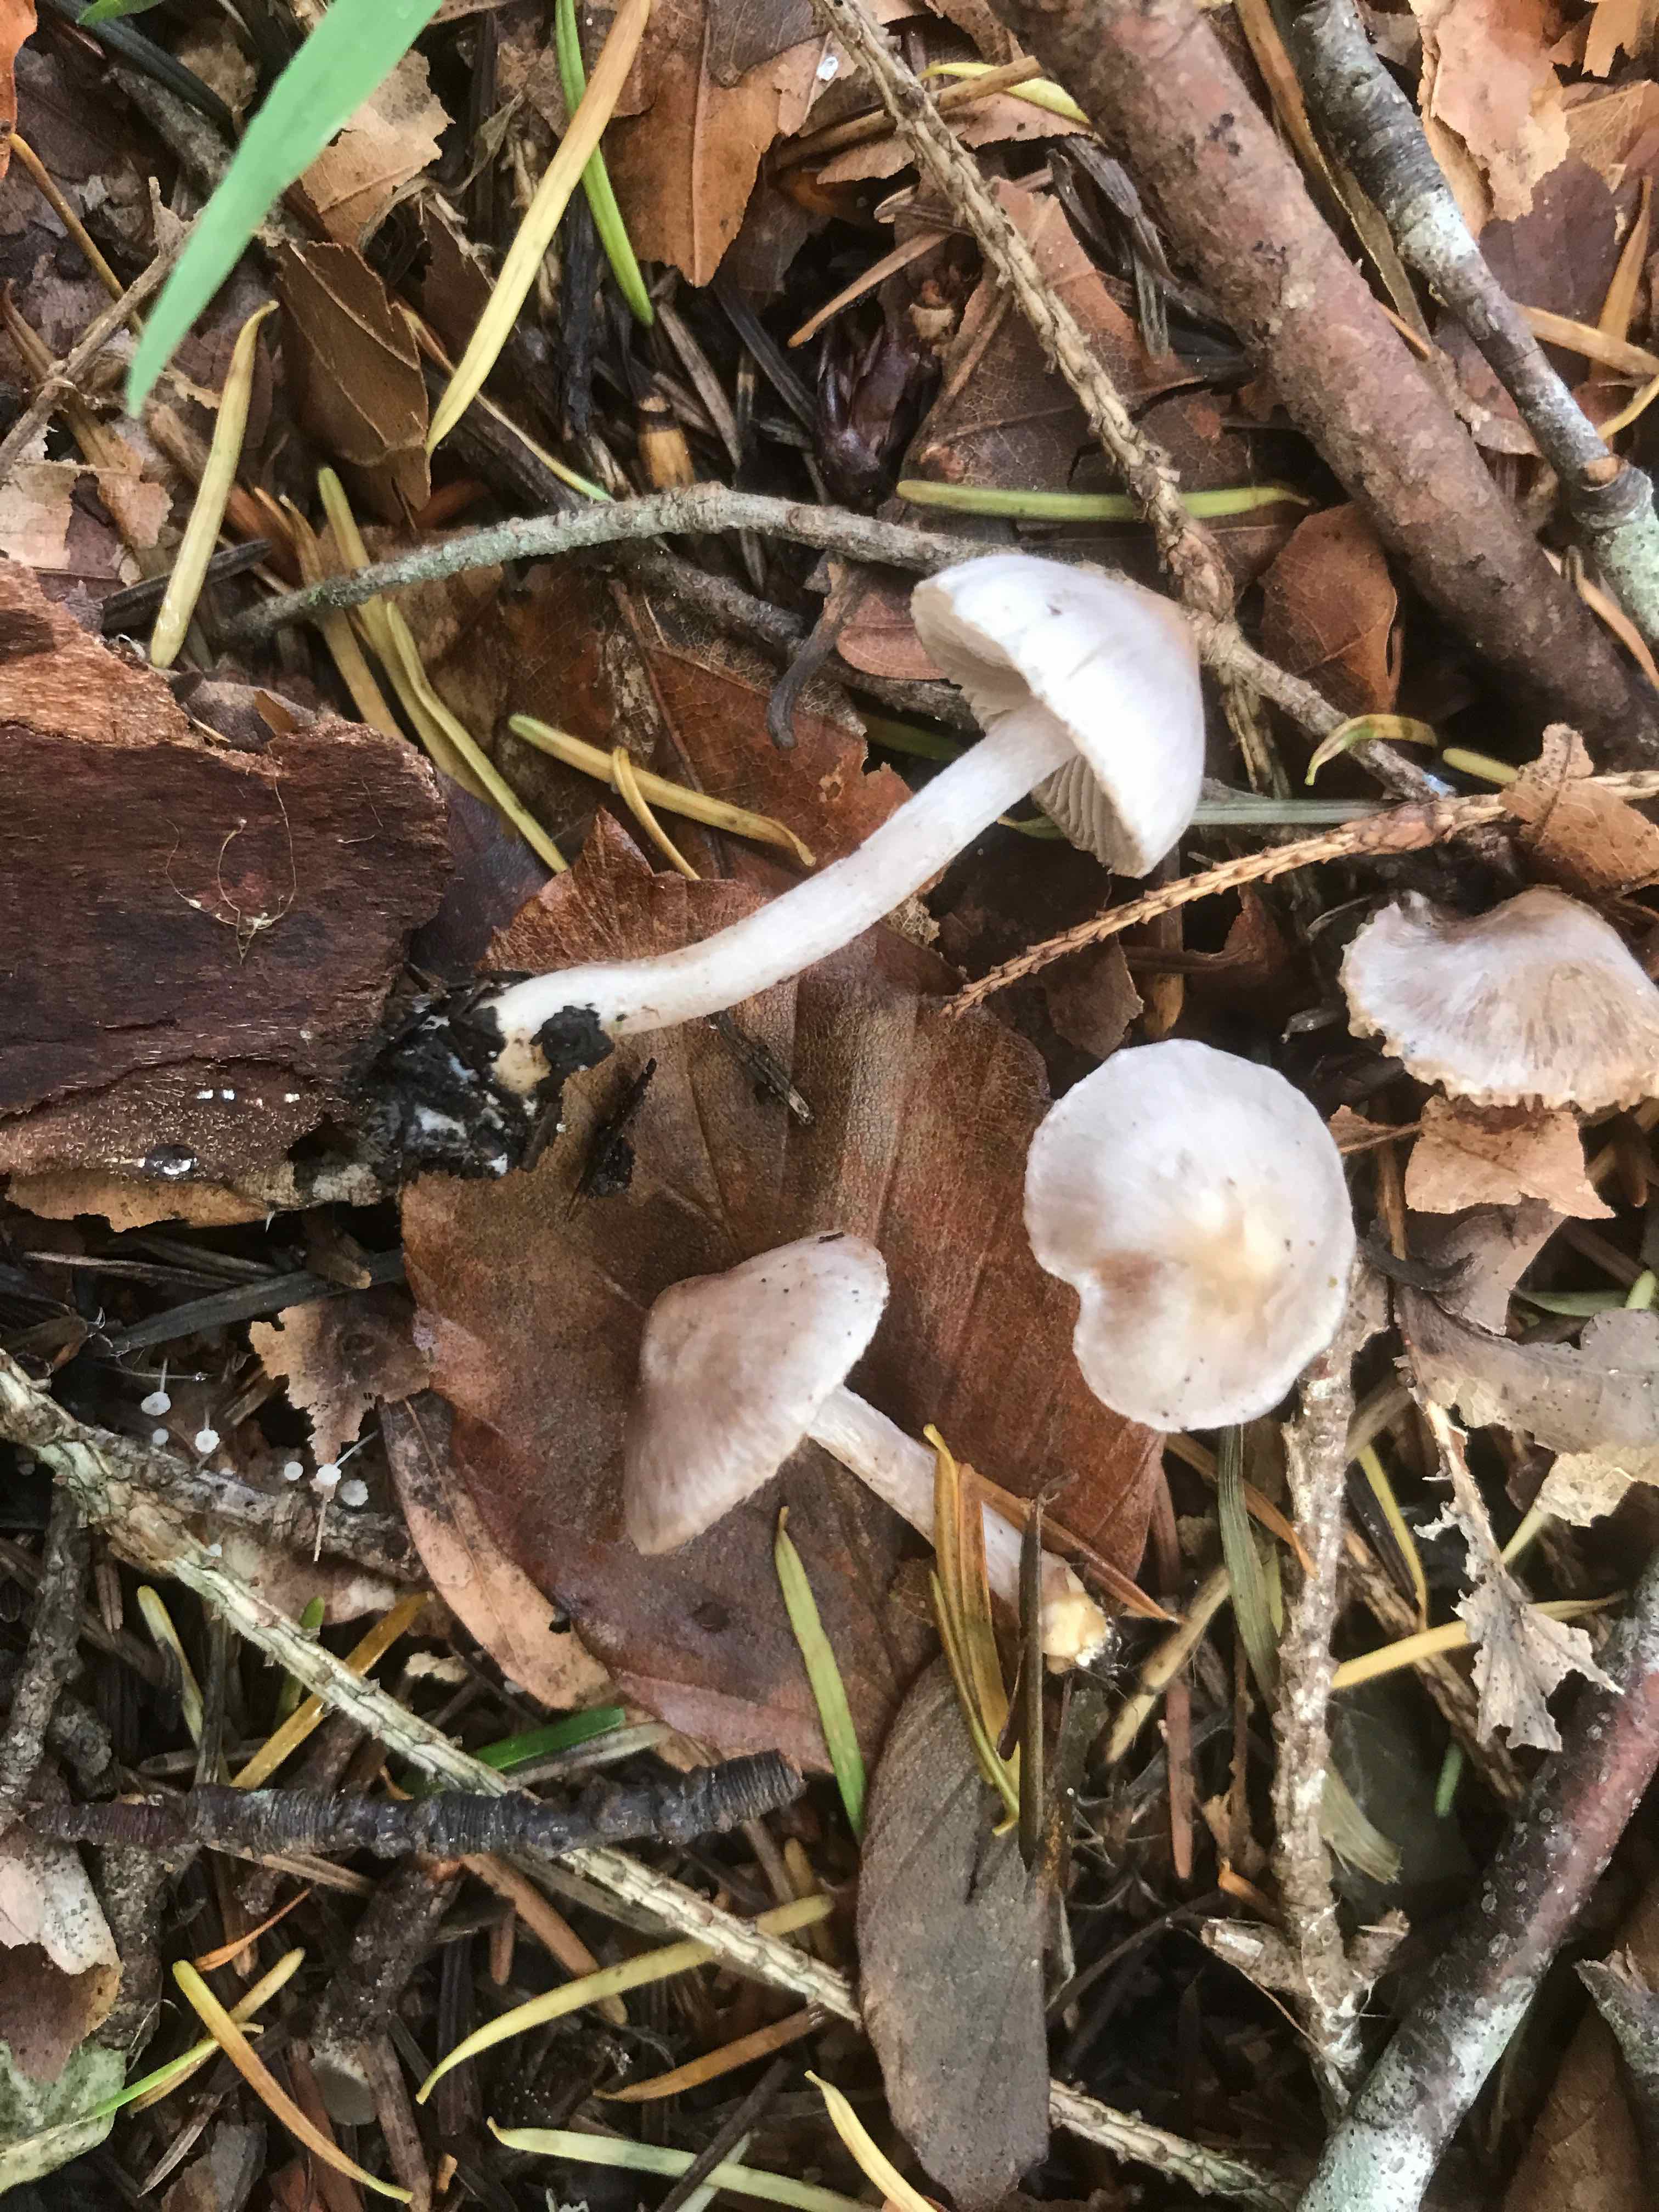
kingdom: Fungi
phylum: Basidiomycota
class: Agaricomycetes
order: Agaricales
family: Inocybaceae
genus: Inocybe
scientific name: Inocybe geophylla
